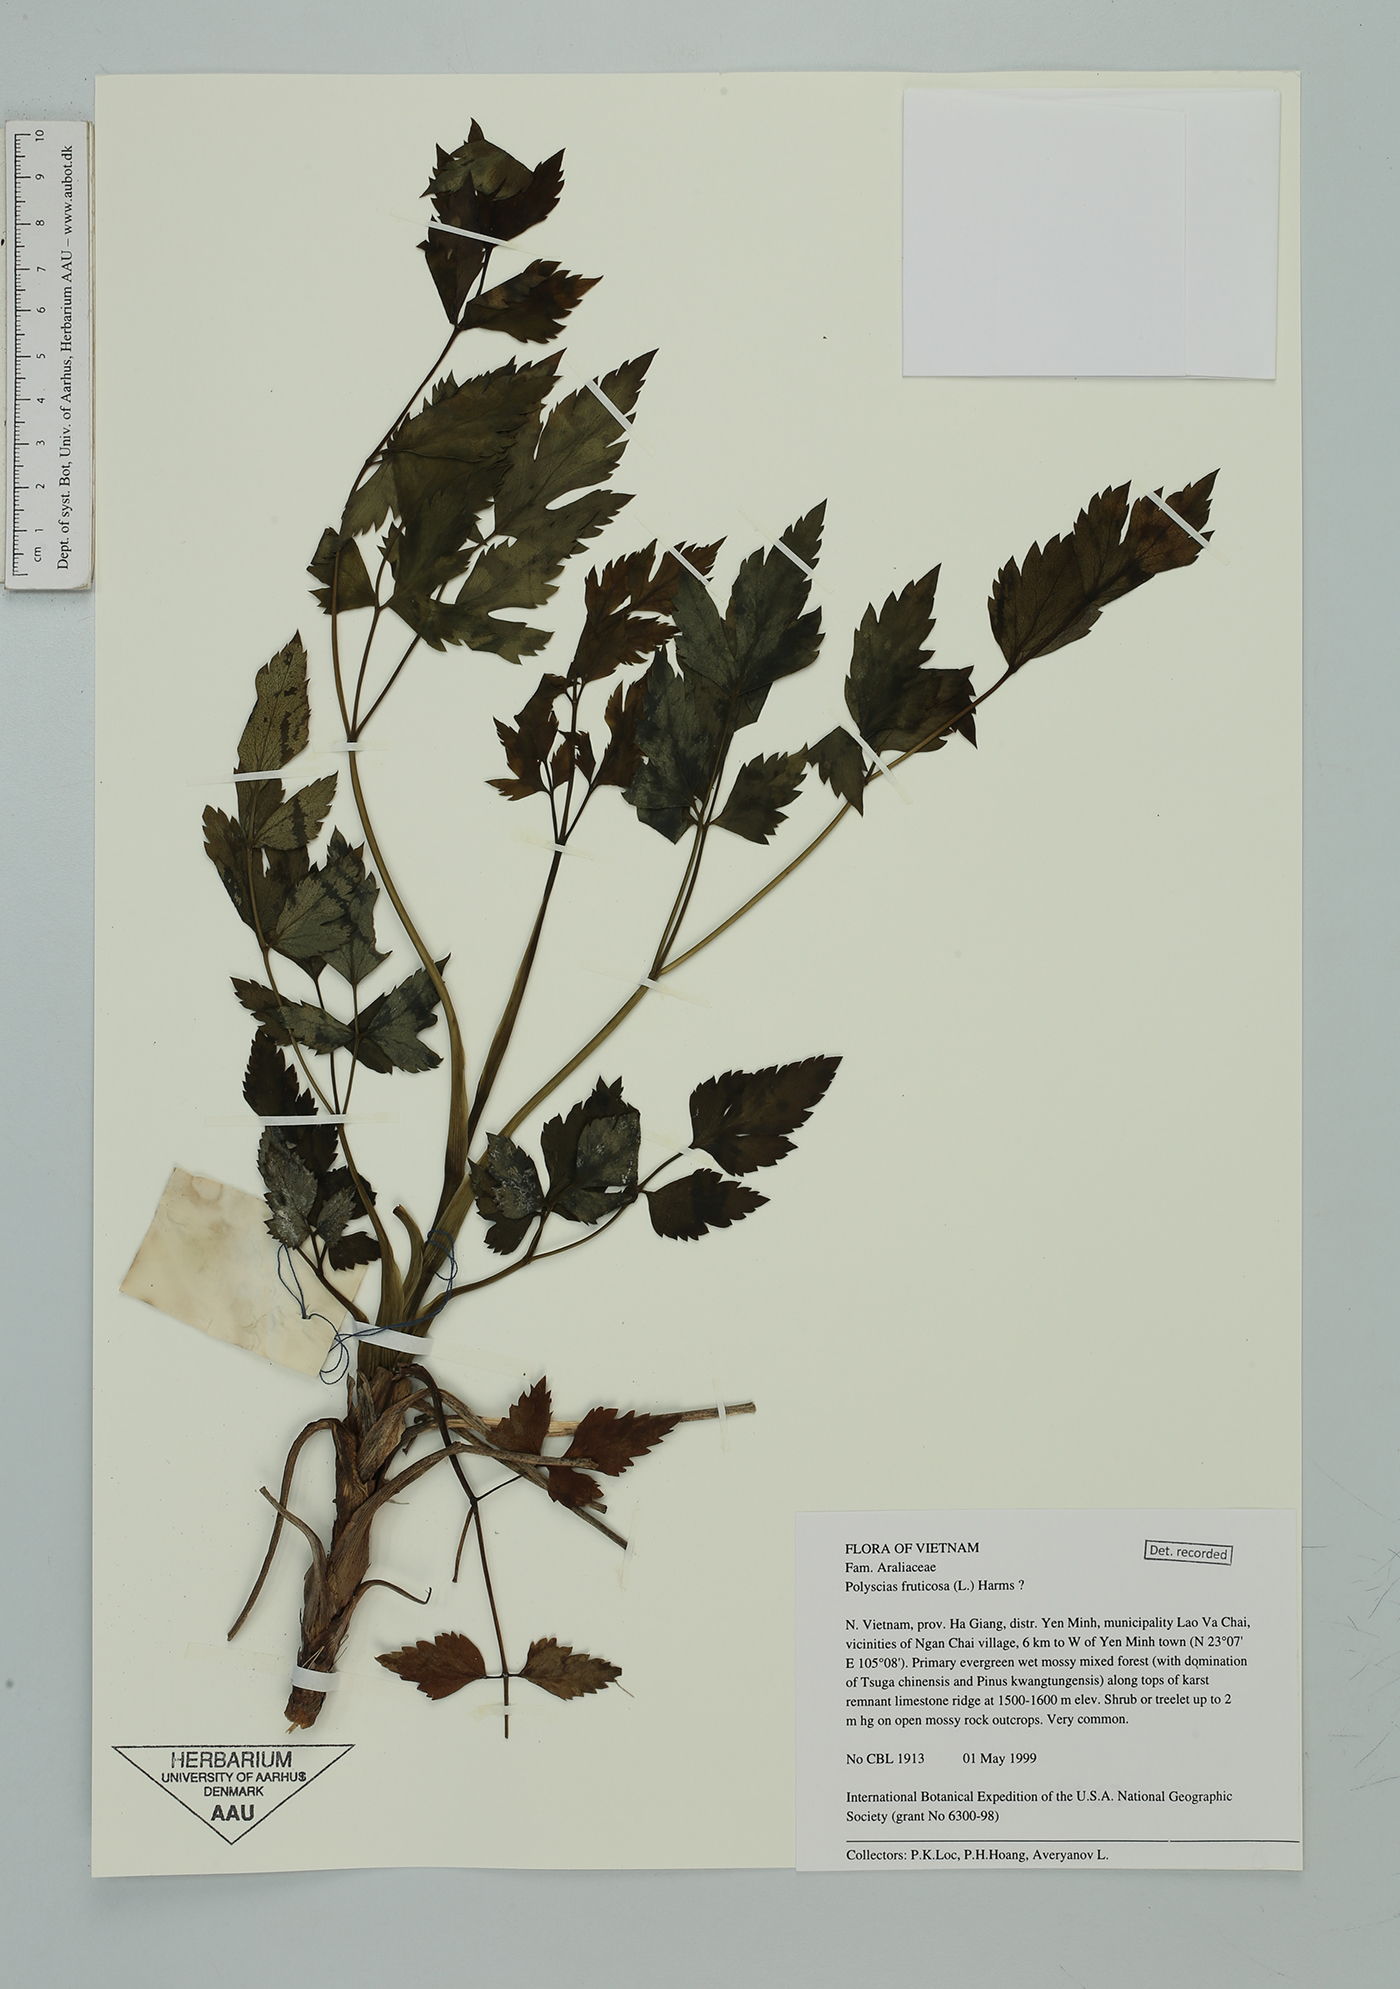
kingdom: Plantae
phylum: Tracheophyta
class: Magnoliopsida
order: Apiales
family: Araliaceae
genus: Polyscias
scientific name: Polyscias fruticosa
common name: Teatree
